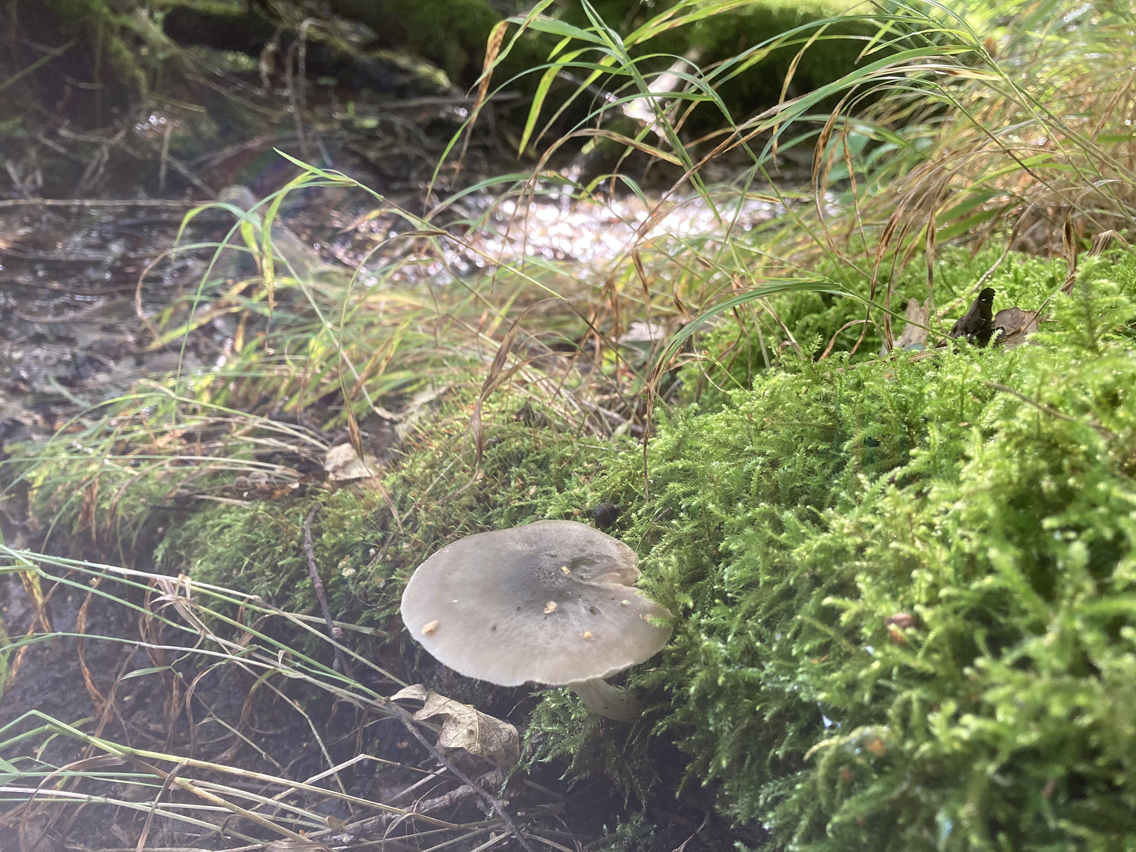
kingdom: Fungi
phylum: Basidiomycota
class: Agaricomycetes
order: Agaricales
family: Pluteaceae
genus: Pluteus
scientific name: Pluteus salicinus
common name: stiv skærmhat
